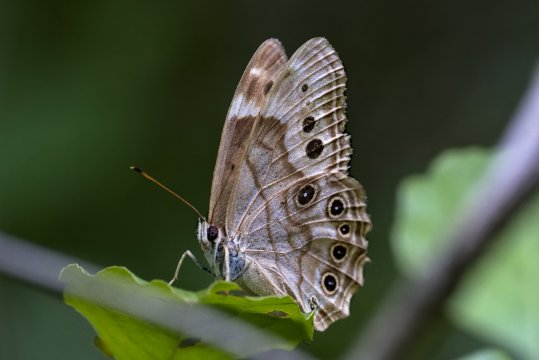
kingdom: Animalia
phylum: Arthropoda
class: Insecta
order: Lepidoptera
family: Nymphalidae
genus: Lethe
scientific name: Lethe anthedon
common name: Northern Pearly-Eye
